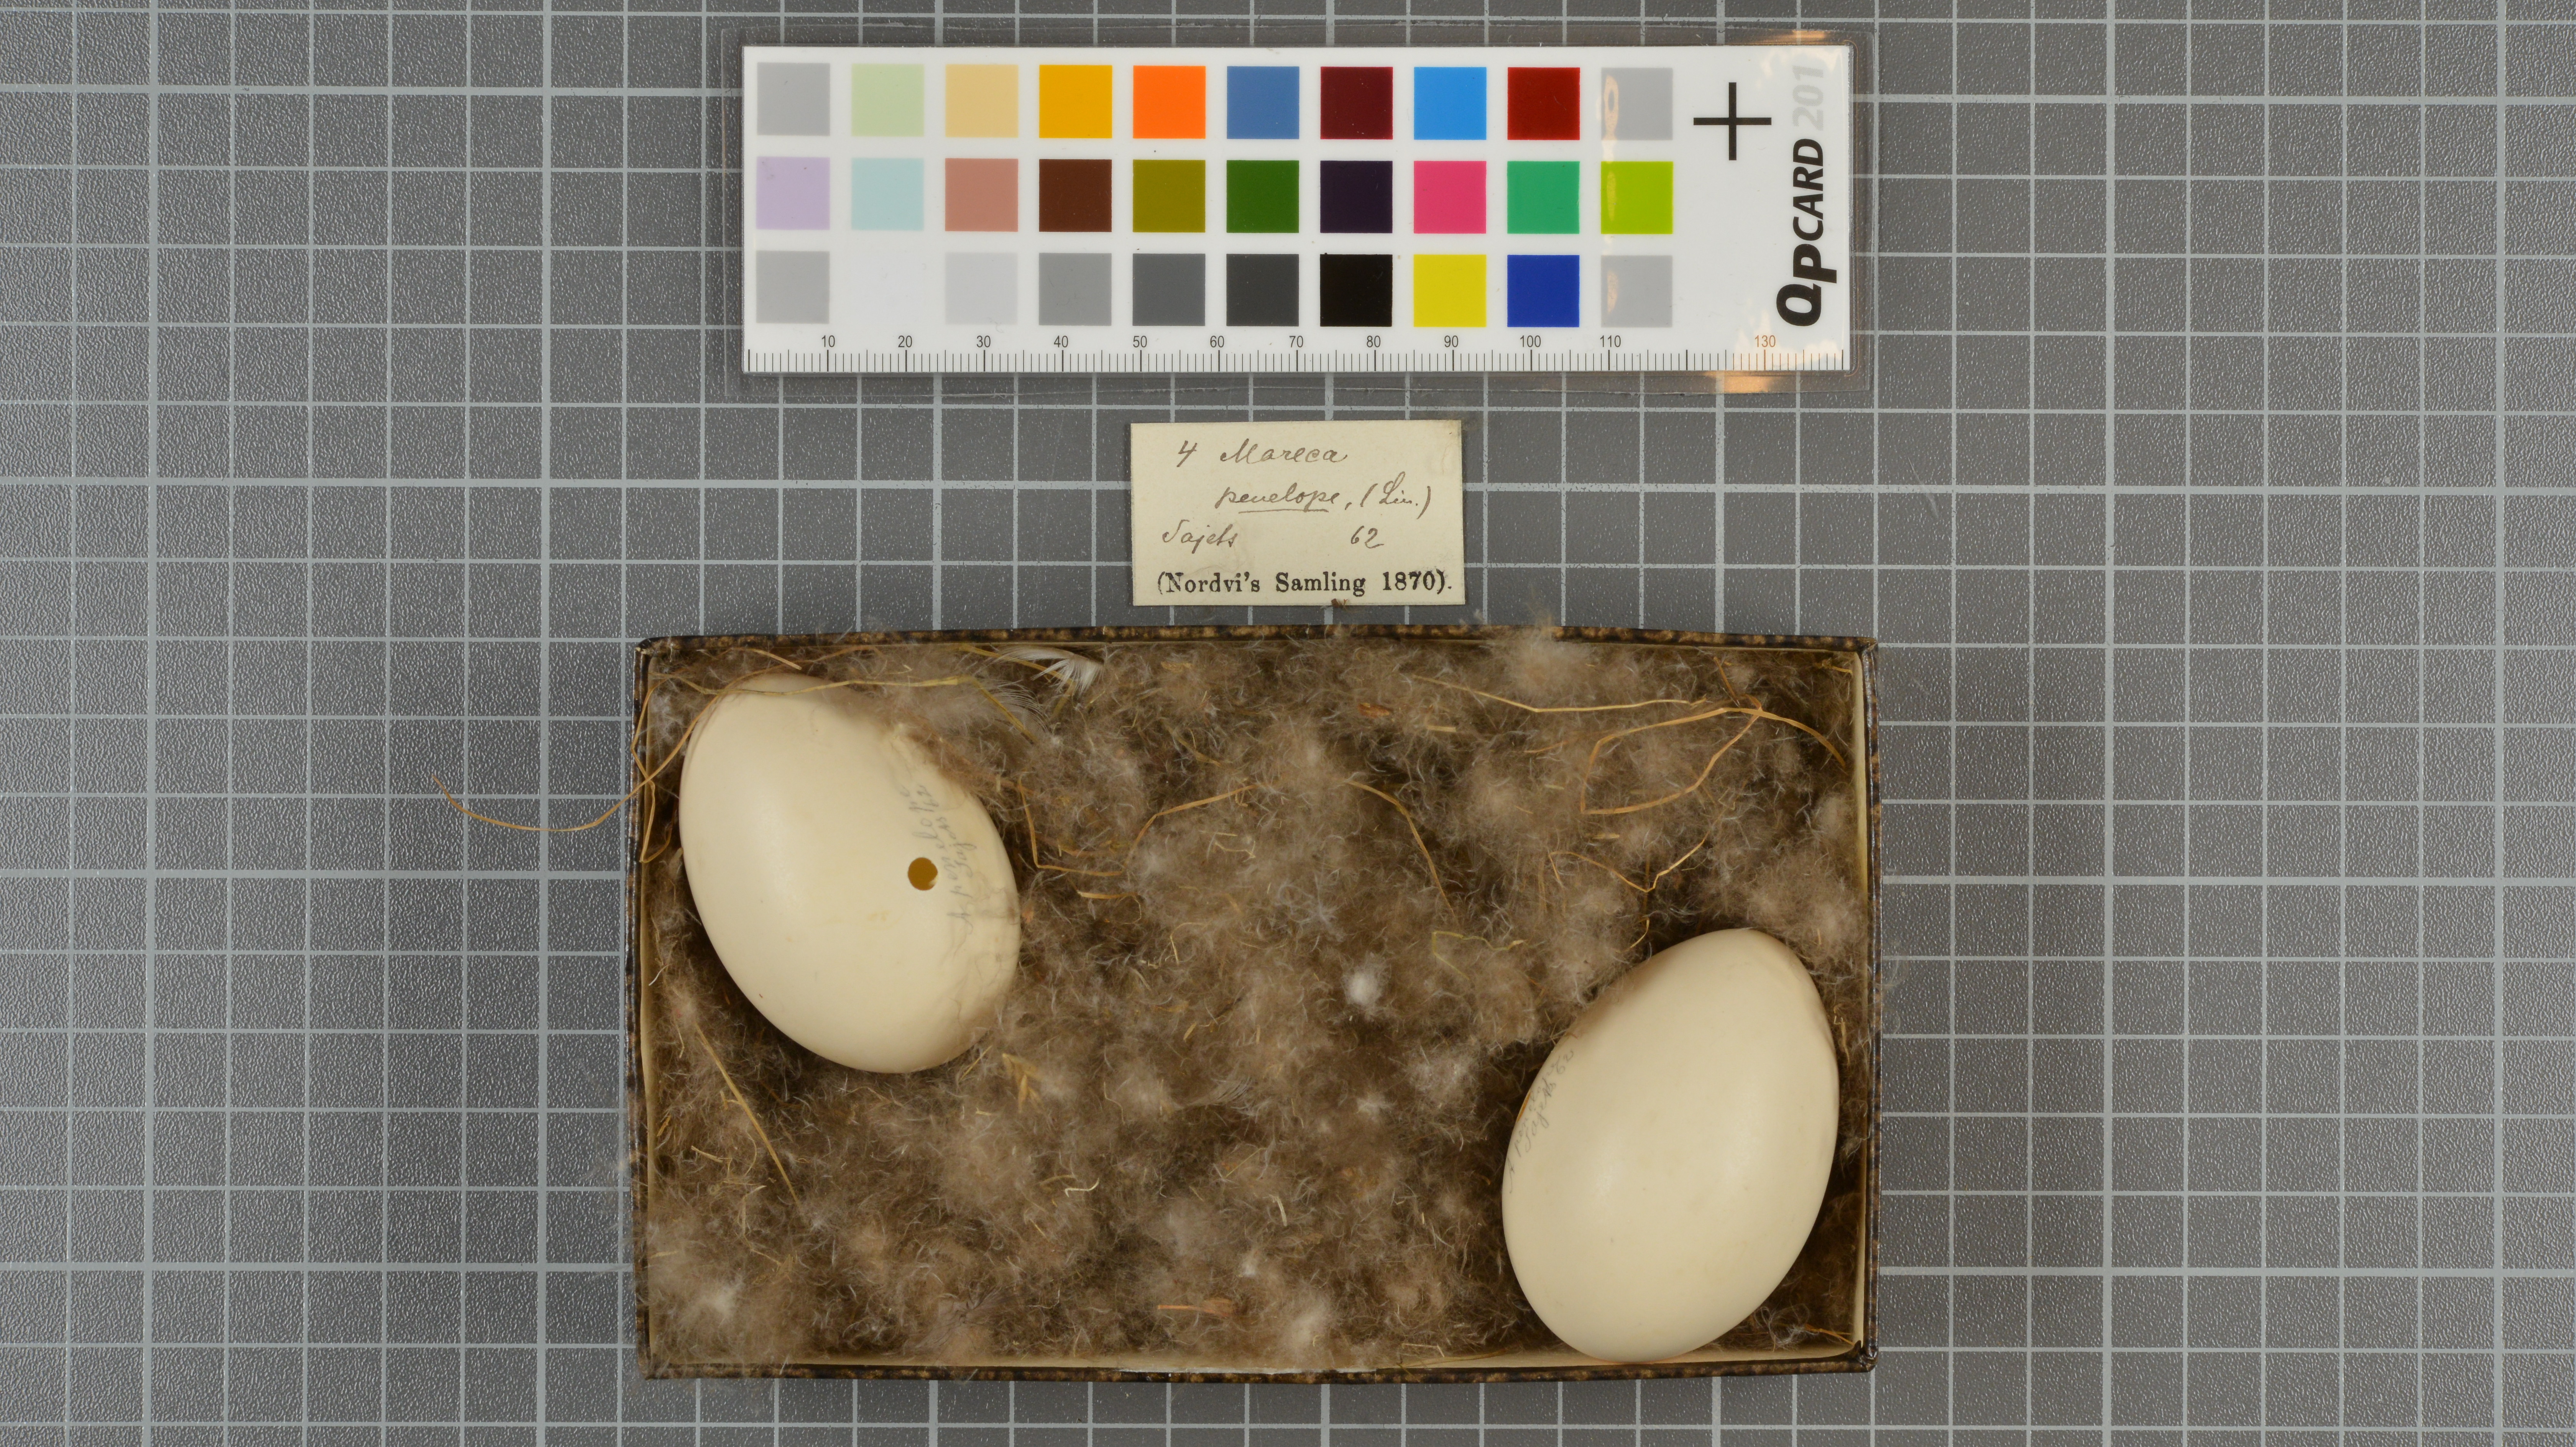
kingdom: Animalia
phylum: Chordata
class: Aves
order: Anseriformes
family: Anatidae
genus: Mareca
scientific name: Mareca penelope
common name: Eurasian wigeon
